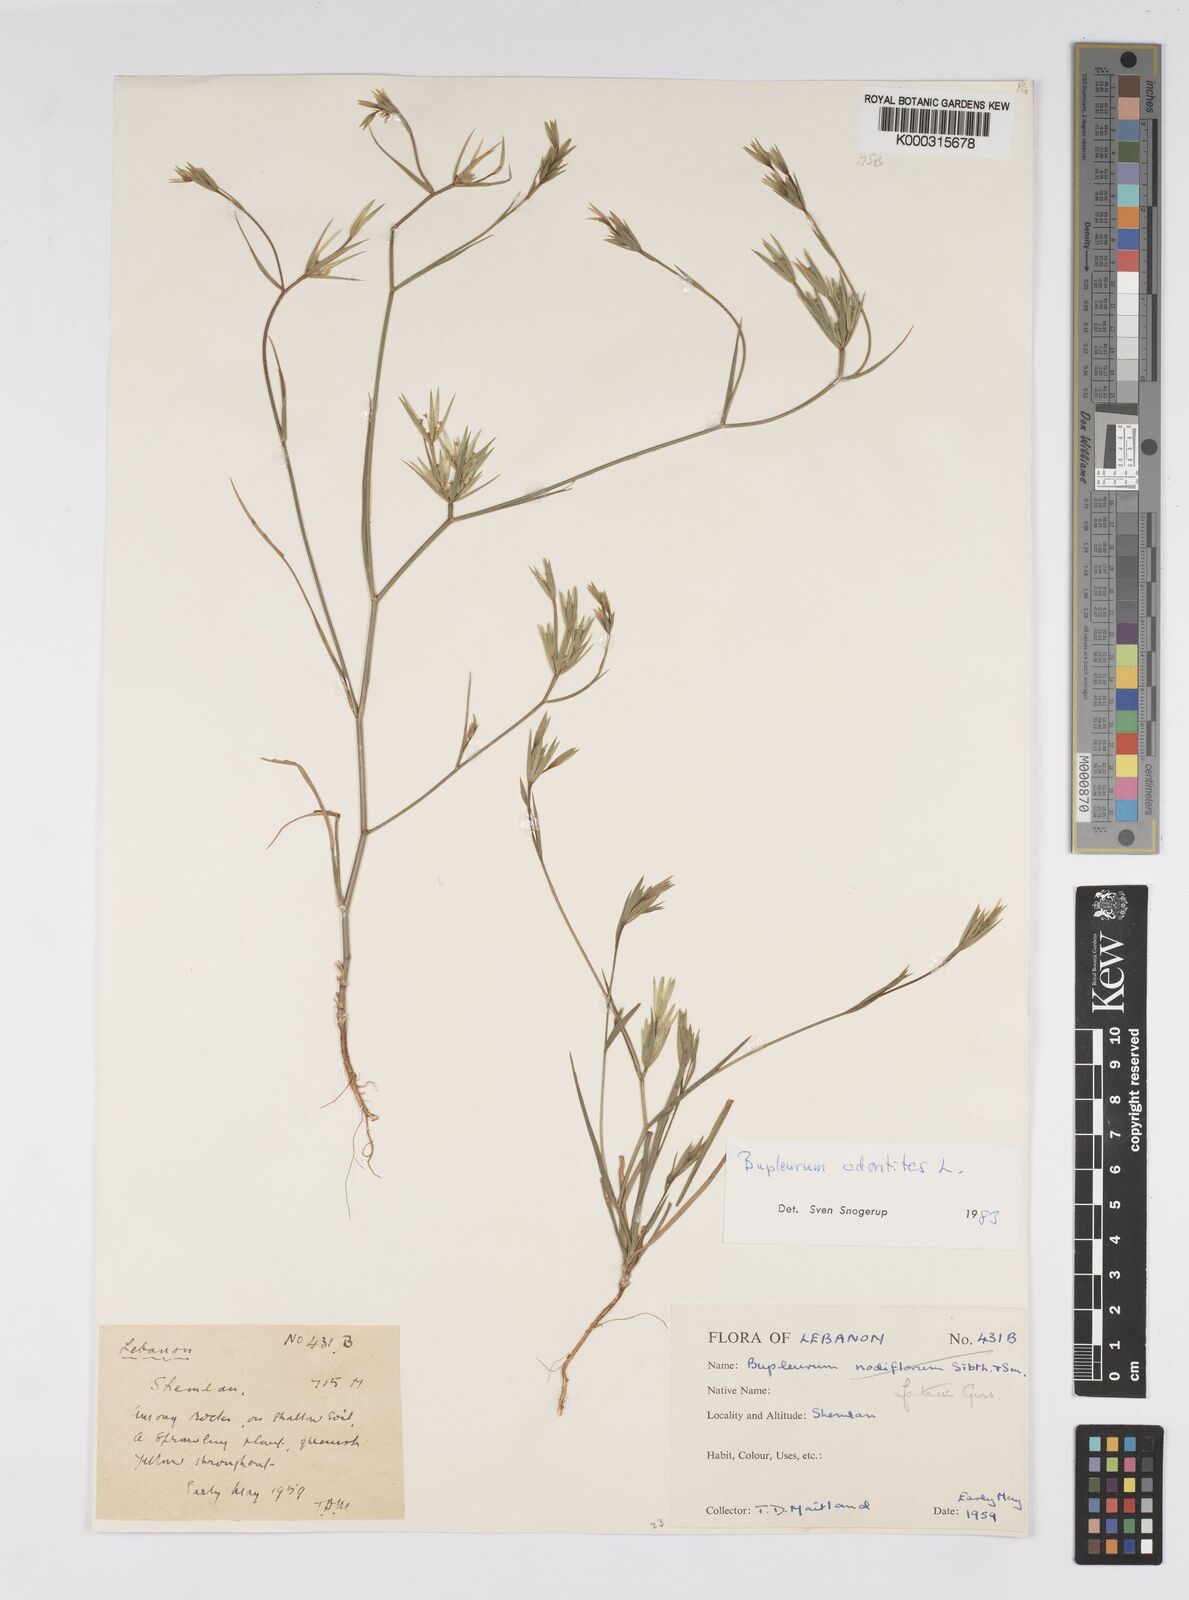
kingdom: Plantae
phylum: Tracheophyta
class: Magnoliopsida
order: Apiales
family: Apiaceae
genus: Bupleurum
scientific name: Bupleurum odontites
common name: Narrowleaf thorow wax
